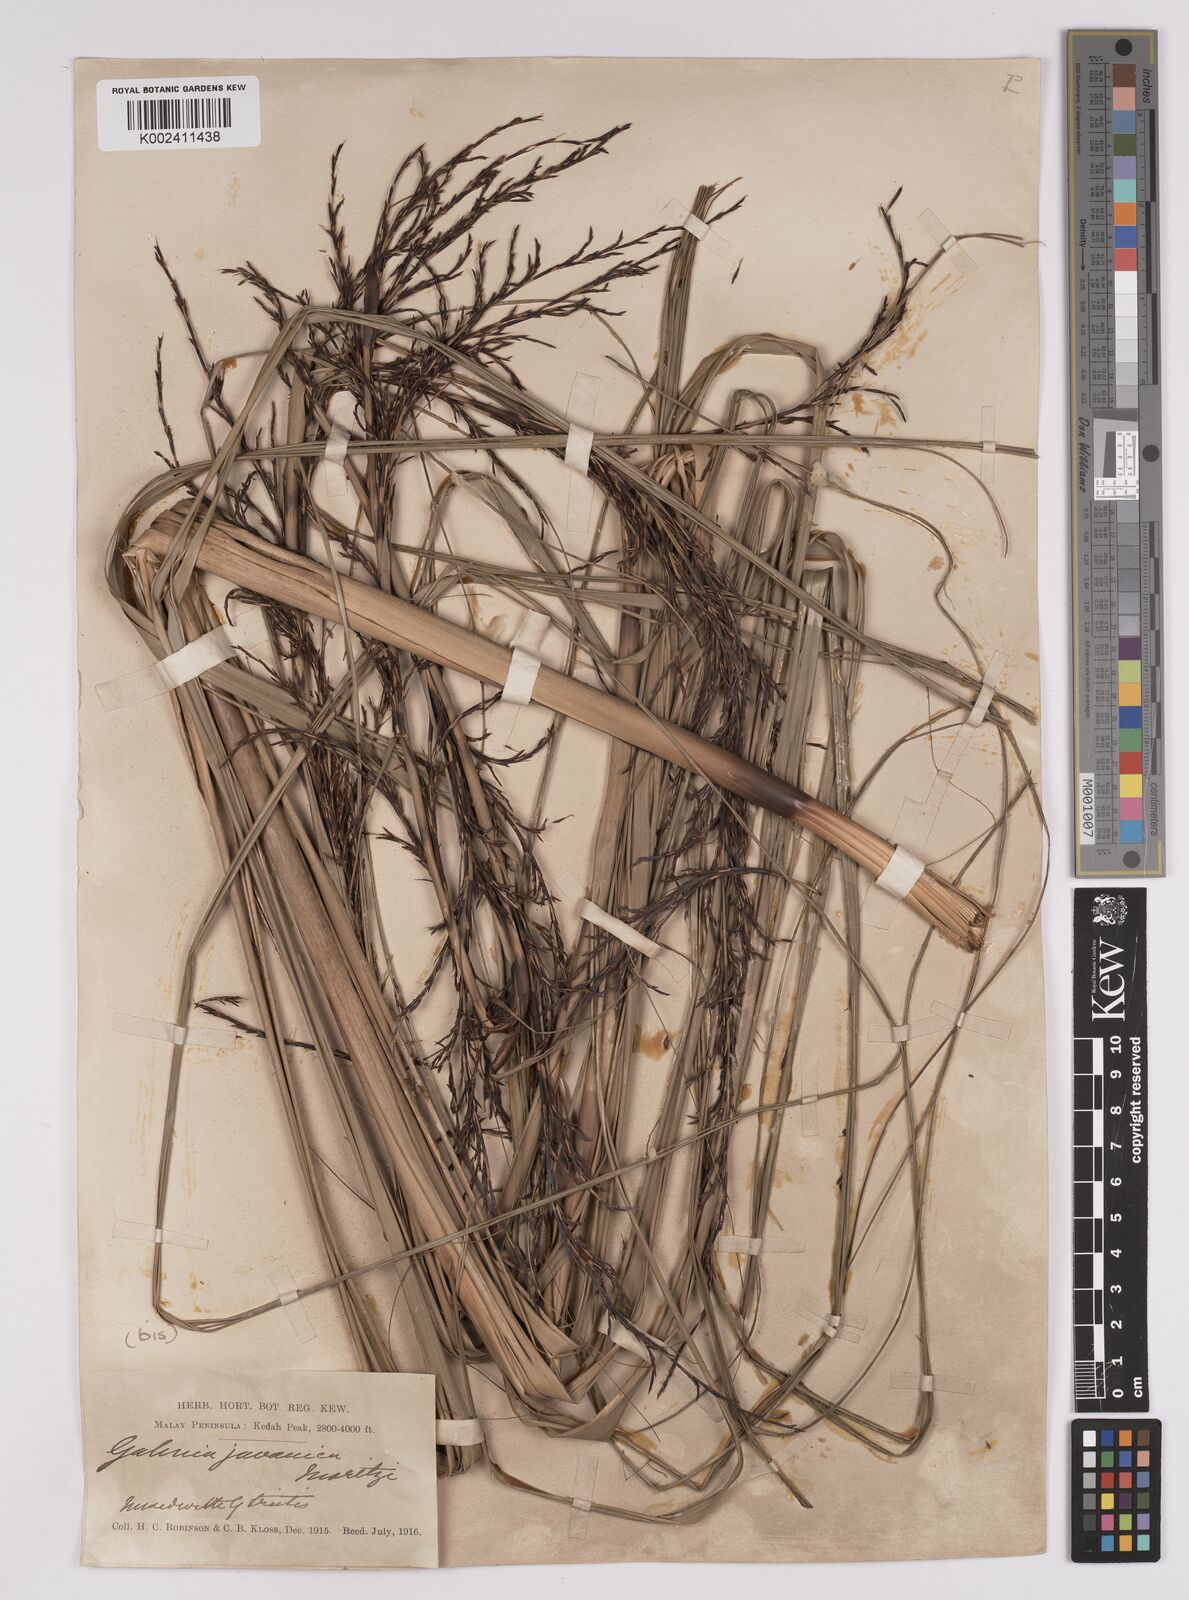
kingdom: Plantae
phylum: Tracheophyta
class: Liliopsida
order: Poales
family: Cyperaceae
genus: Gahnia
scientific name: Gahnia baniensis
